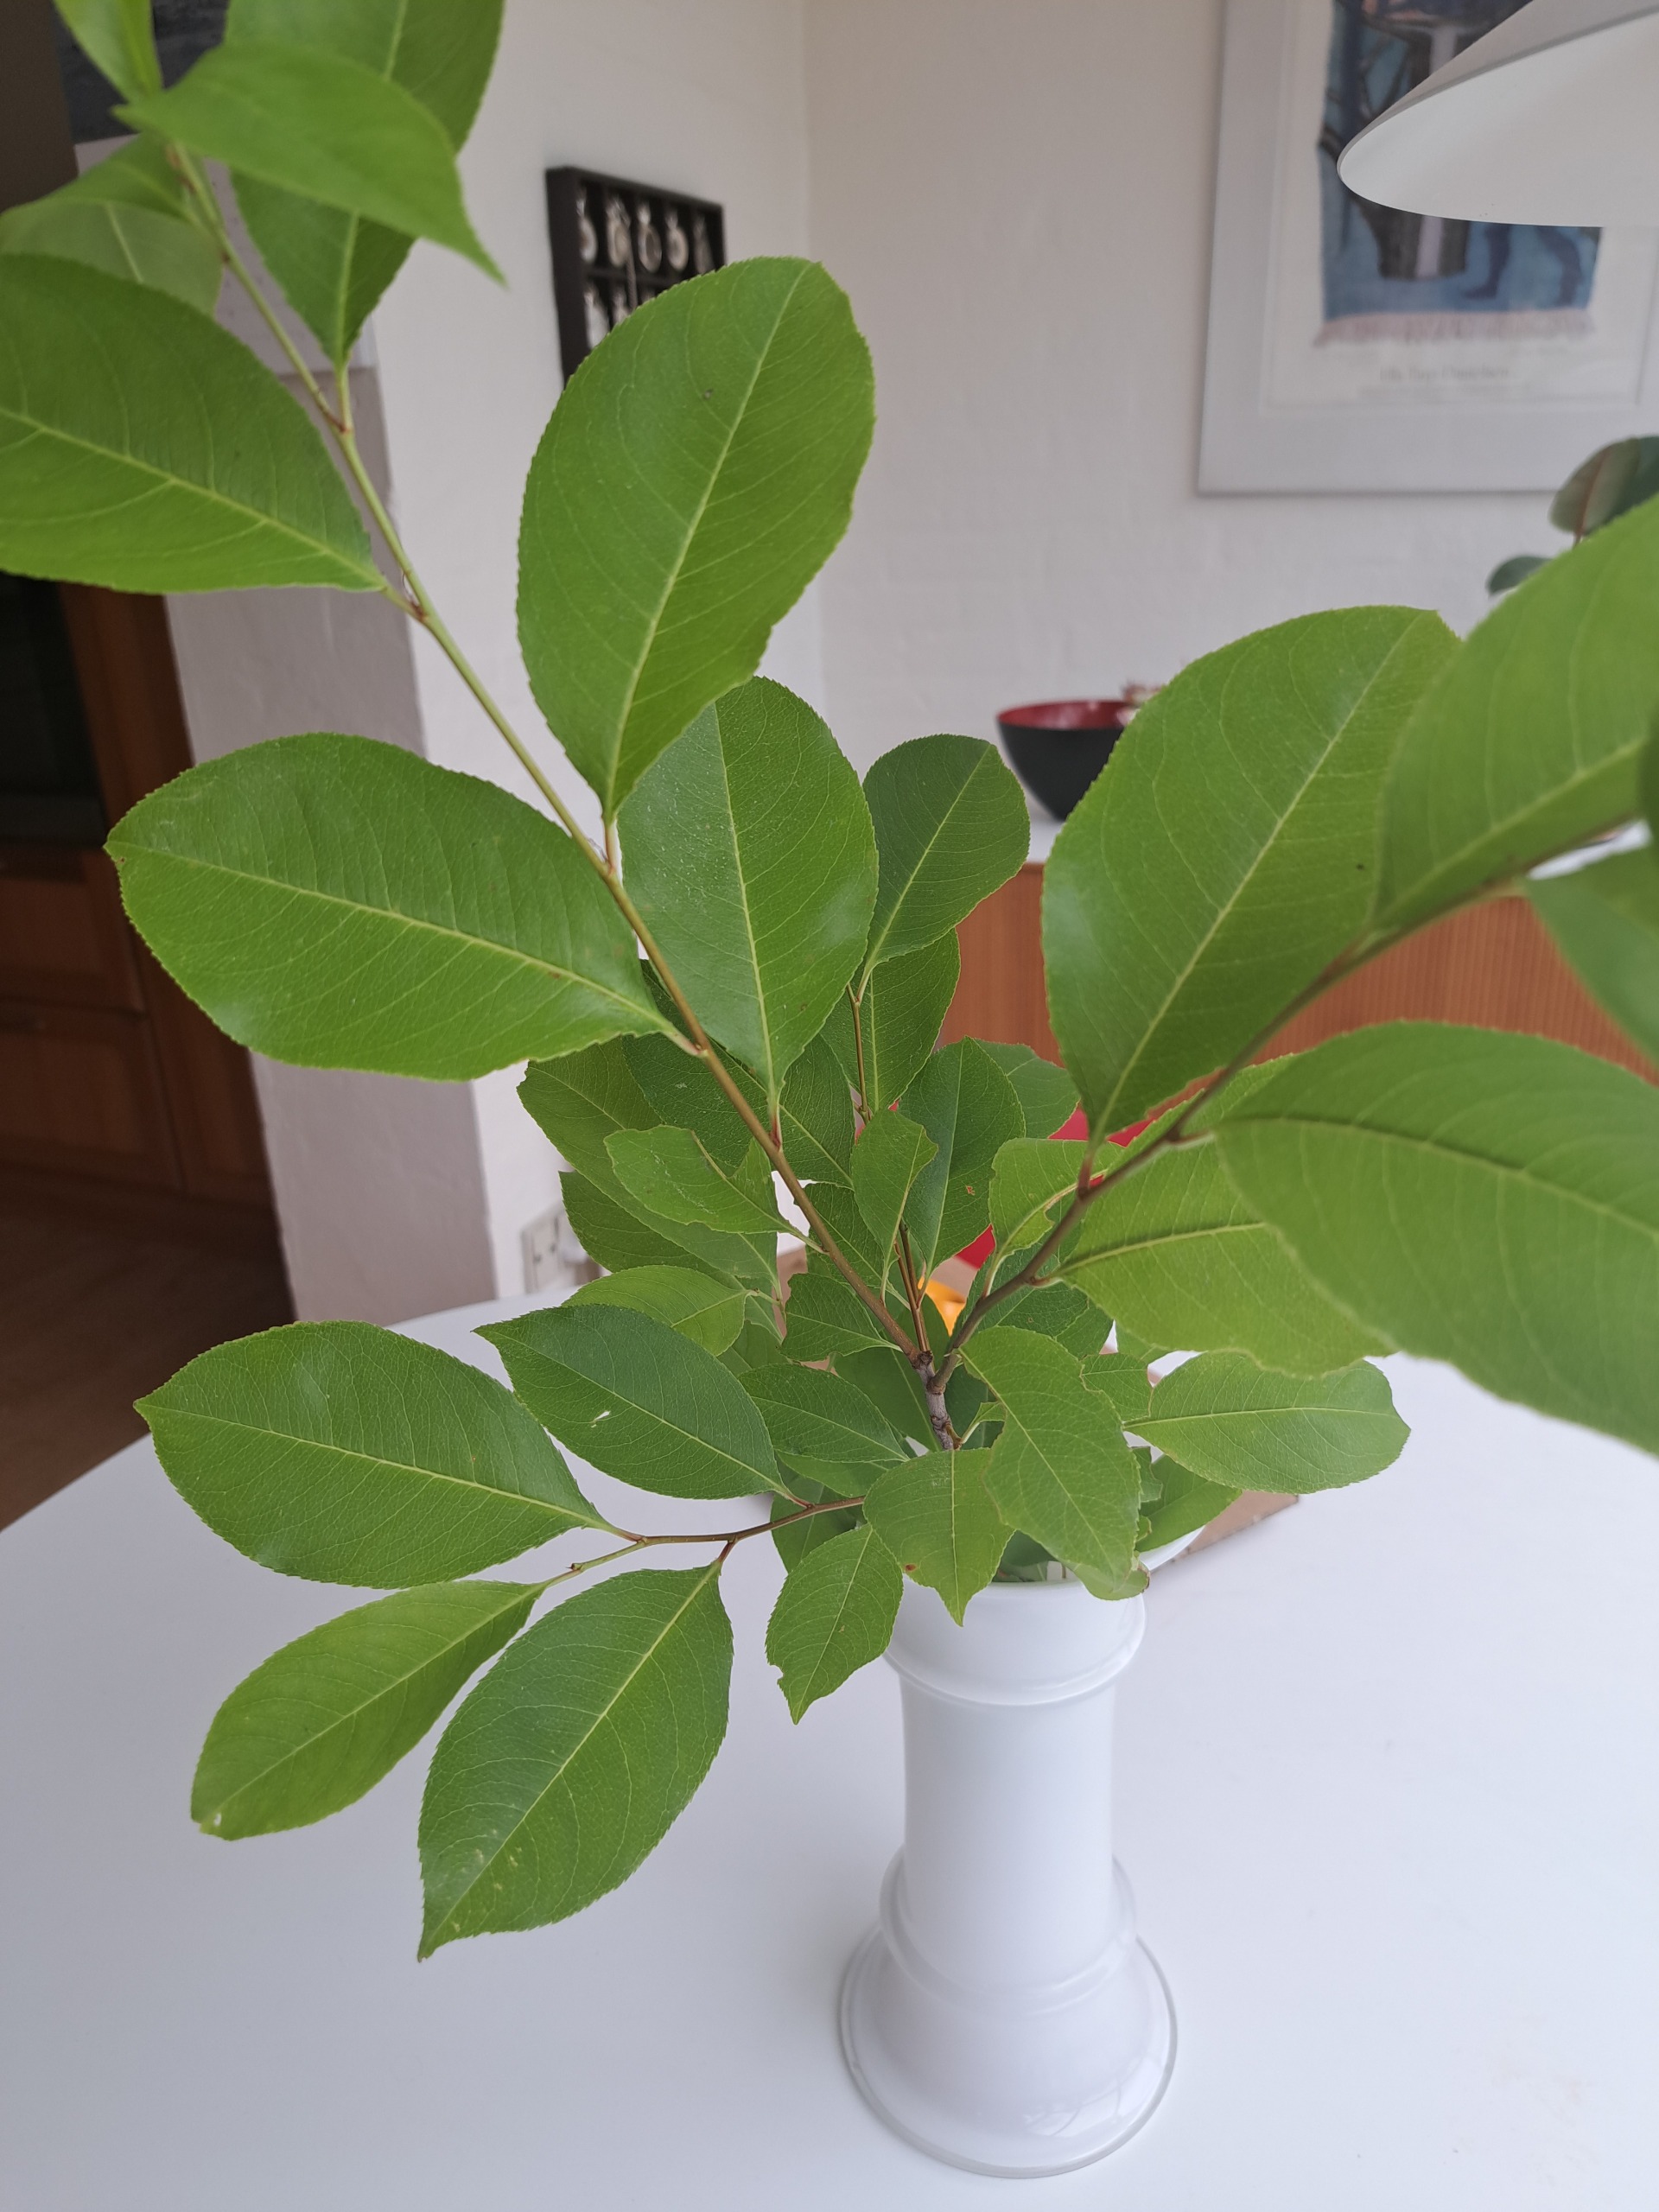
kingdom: Plantae
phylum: Tracheophyta
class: Magnoliopsida
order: Rosales
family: Rosaceae
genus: Prunus
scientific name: Prunus serotina
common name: Glansbladet hæg
